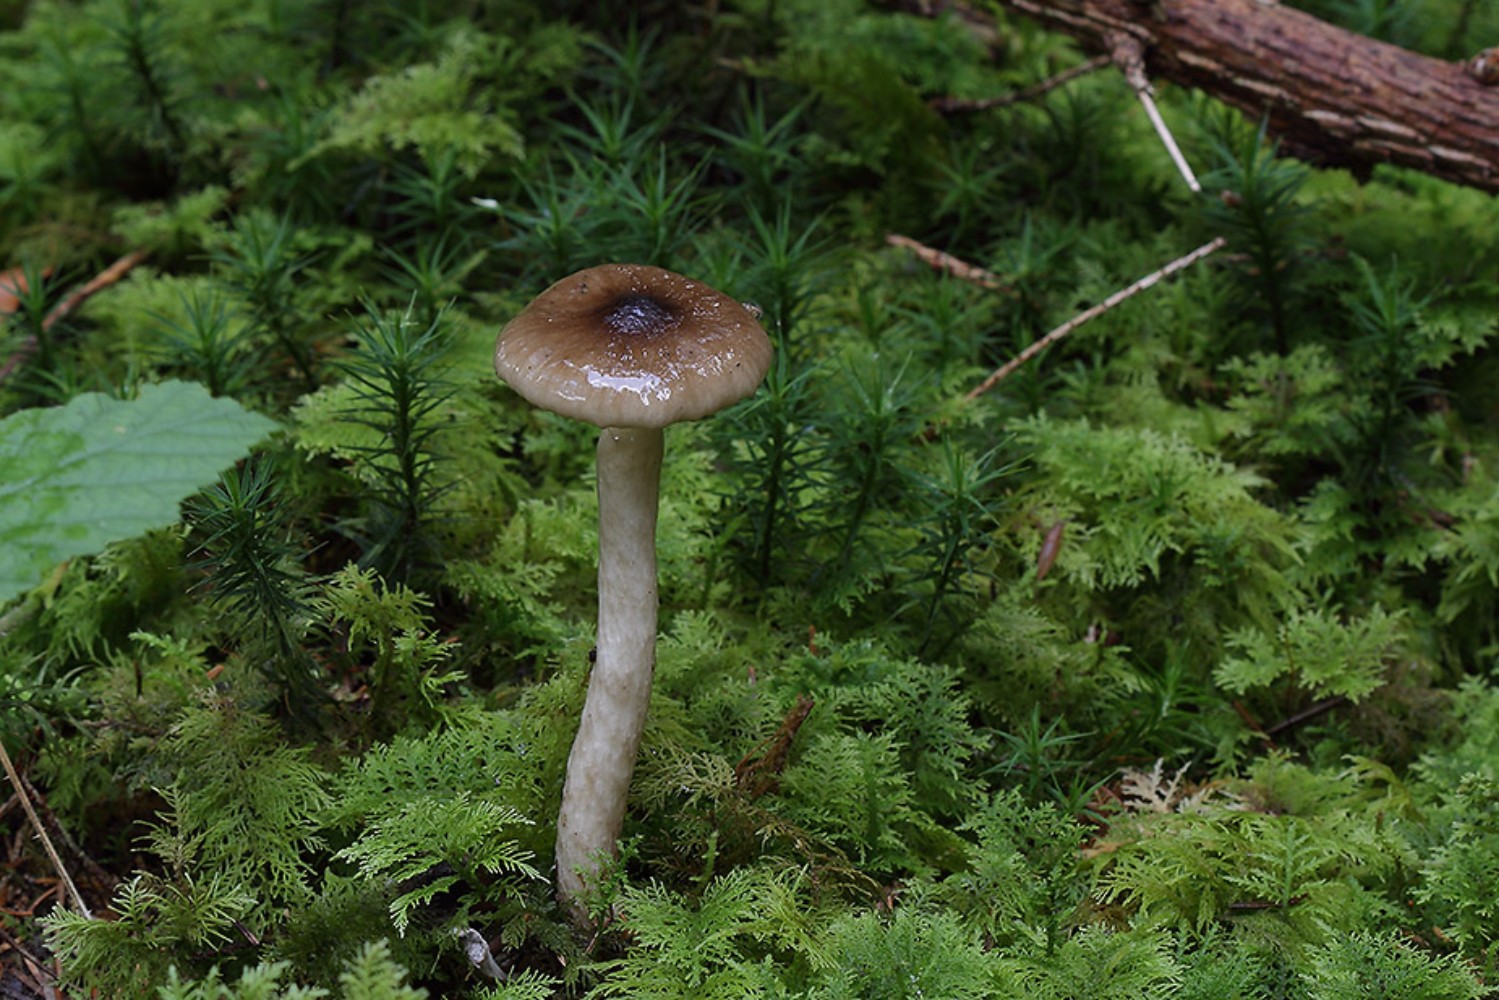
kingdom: Fungi
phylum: Basidiomycota
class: Agaricomycetes
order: Agaricales
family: Hygrophoraceae
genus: Hygrophorus
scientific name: Hygrophorus olivaceoalbus
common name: hvidbrun sneglehat
